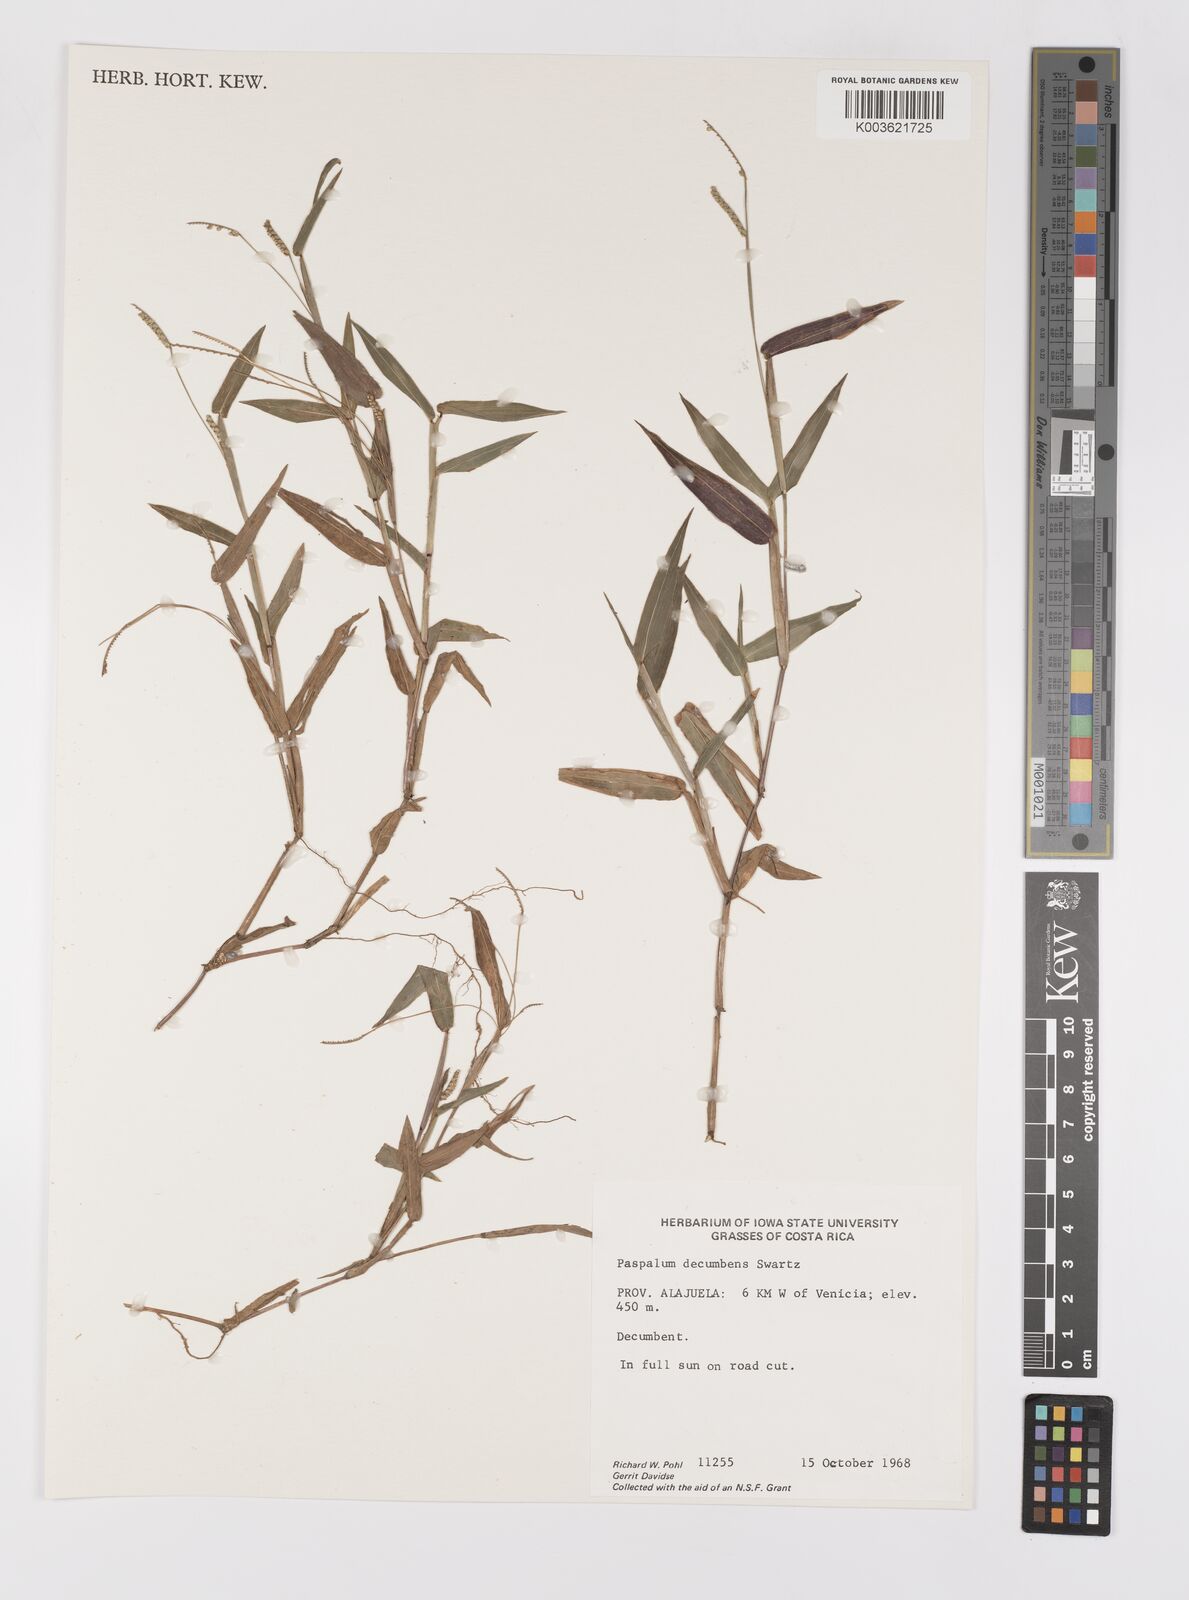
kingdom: Plantae
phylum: Tracheophyta
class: Liliopsida
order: Poales
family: Poaceae
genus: Paspalum
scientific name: Paspalum
